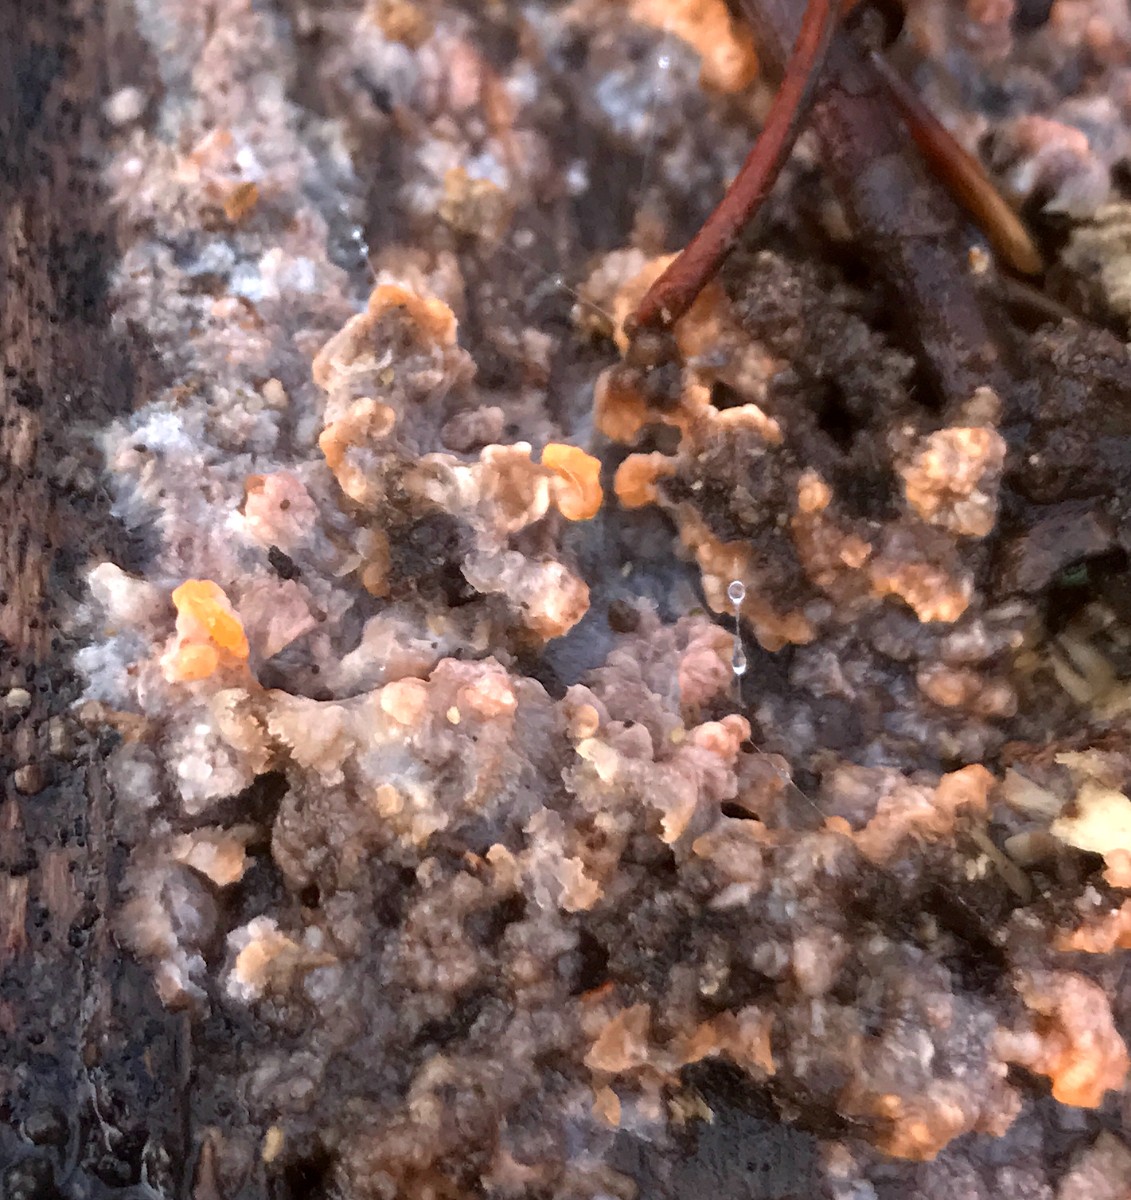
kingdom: Fungi
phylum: Basidiomycota
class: Agaricomycetes
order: Polyporales
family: Meruliaceae
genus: Phlebia
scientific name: Phlebia radiata
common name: stråle-åresvamp
